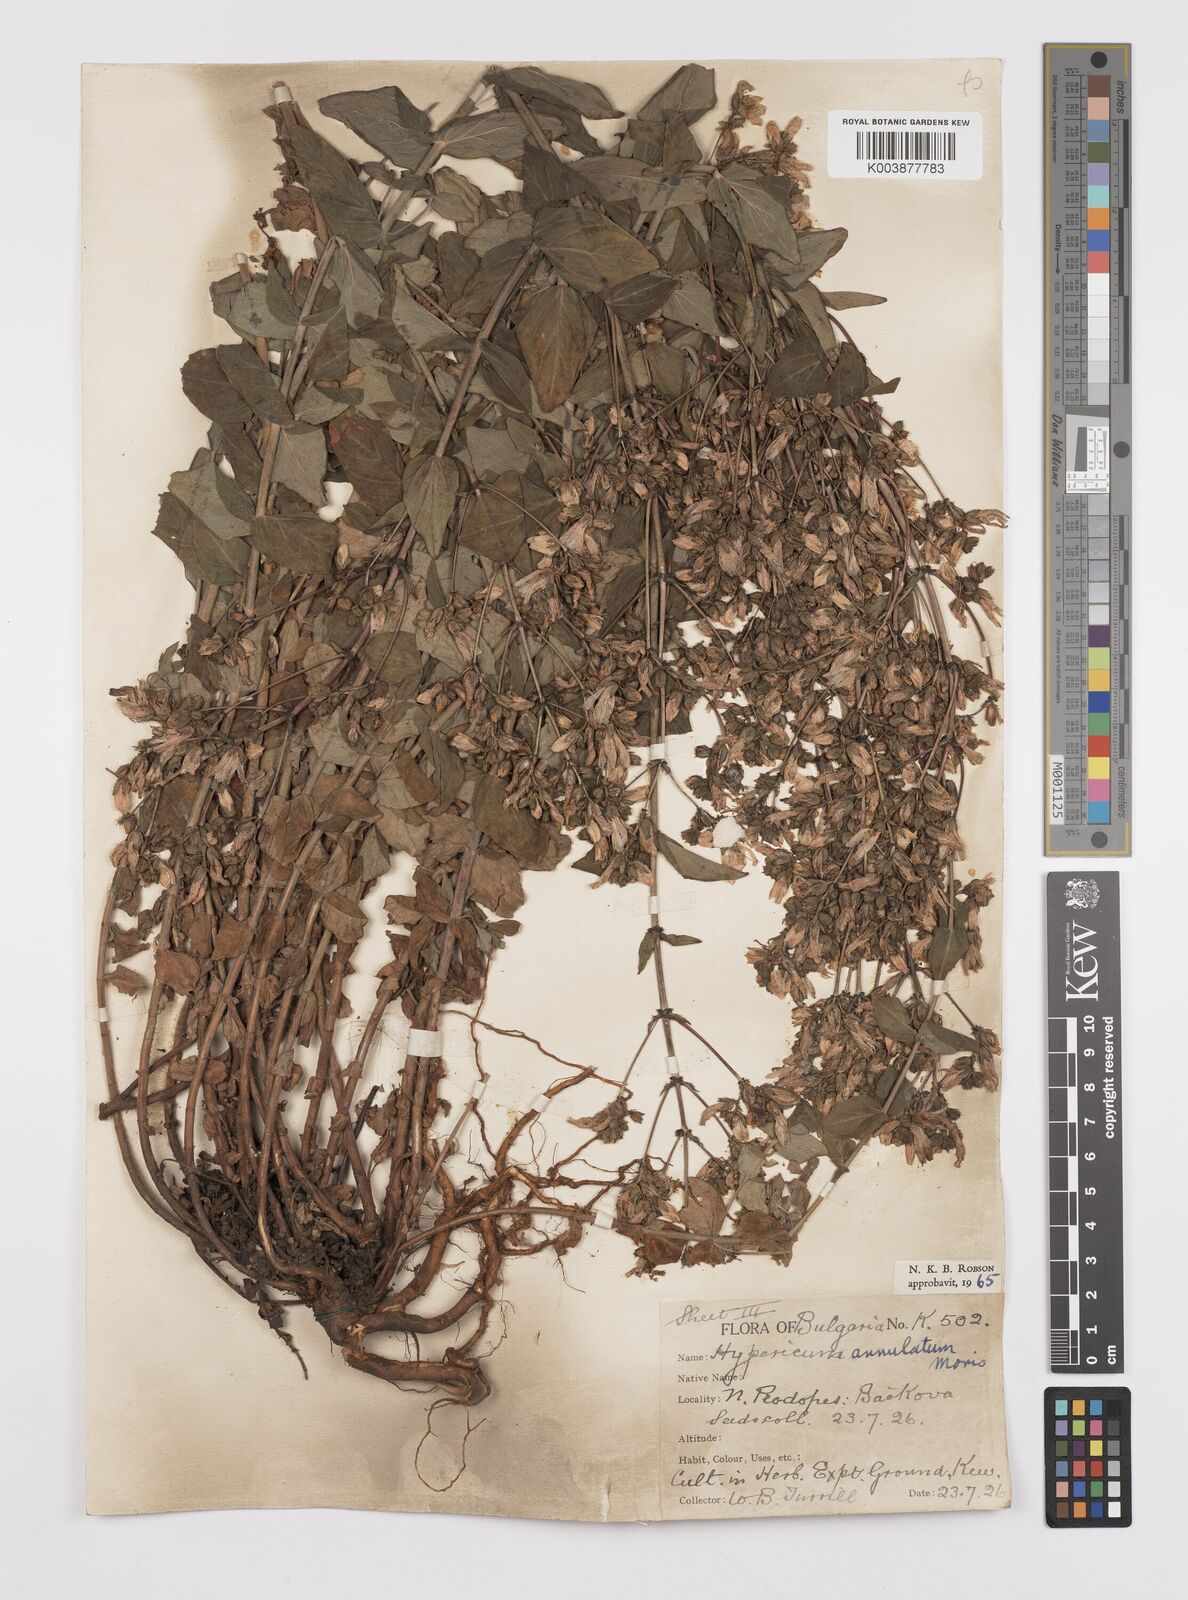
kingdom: Plantae
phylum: Tracheophyta
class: Magnoliopsida
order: Malpighiales
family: Hypericaceae
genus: Hypericum
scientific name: Hypericum annulatum
